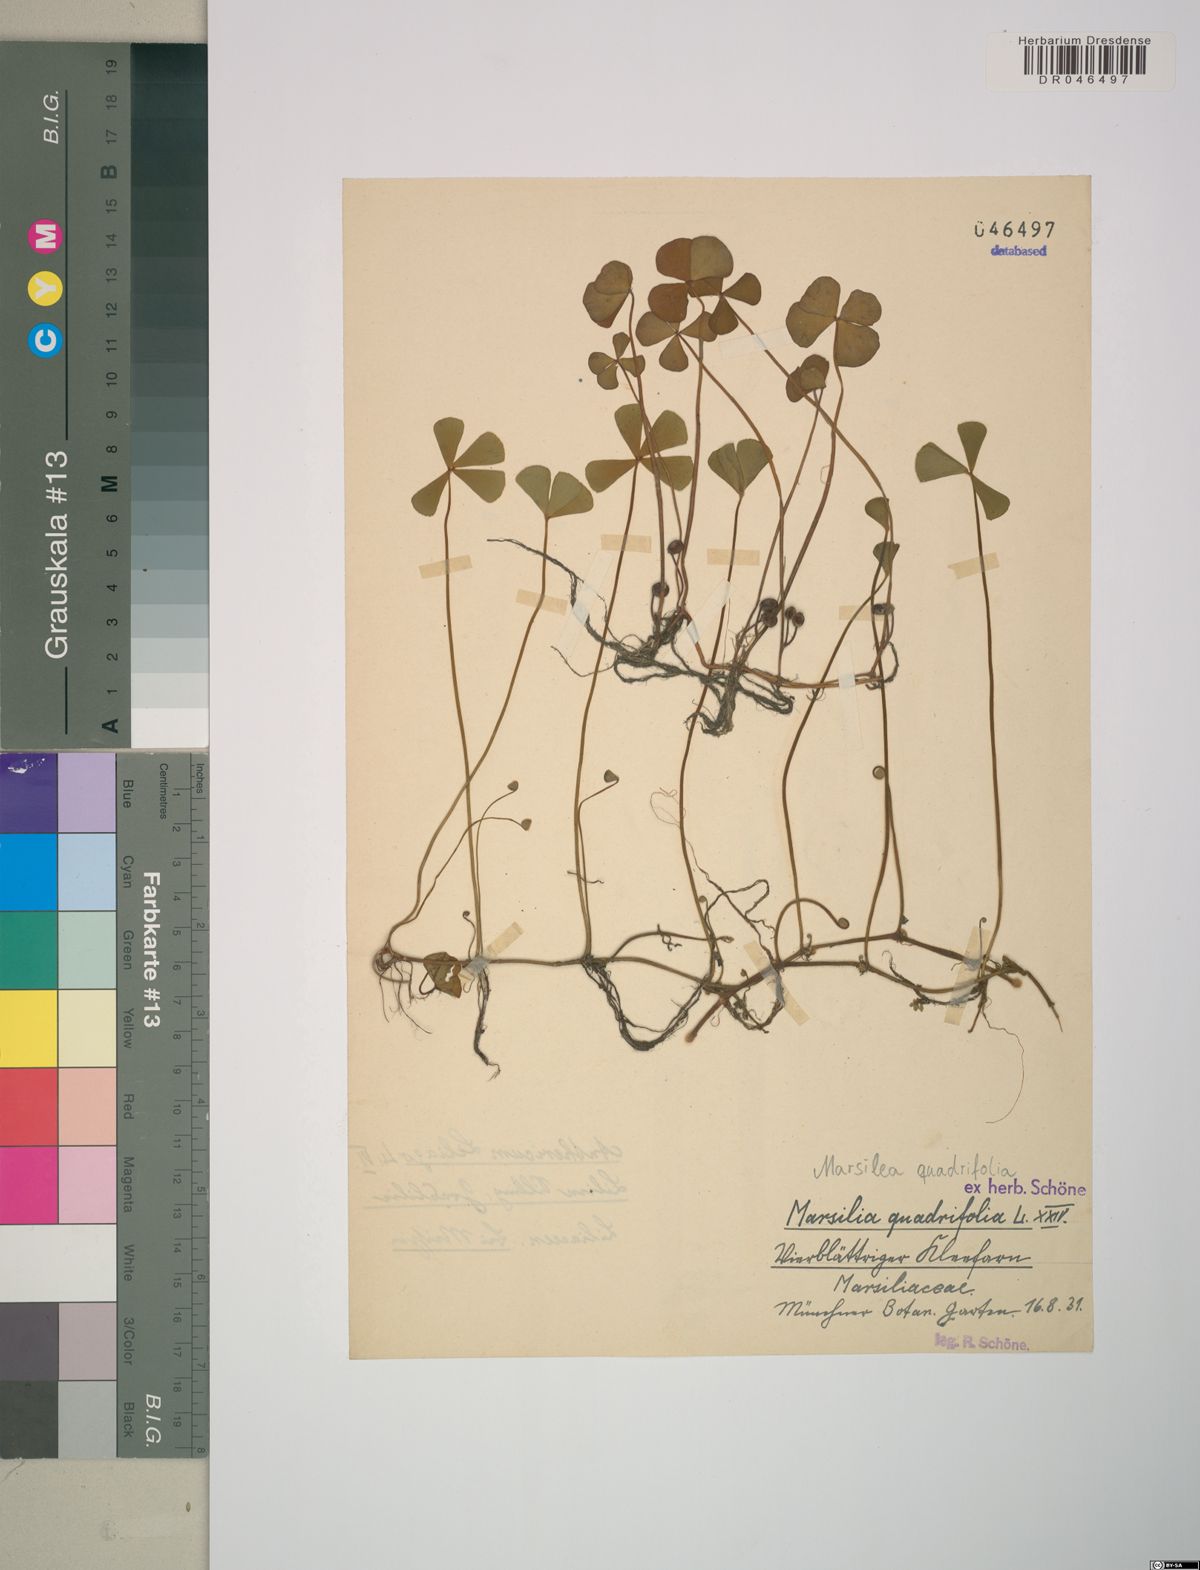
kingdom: Plantae
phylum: Tracheophyta
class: Polypodiopsida
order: Salviniales
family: Marsileaceae
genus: Marsilea
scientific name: Marsilea quadrifolia
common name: Water shamrock
